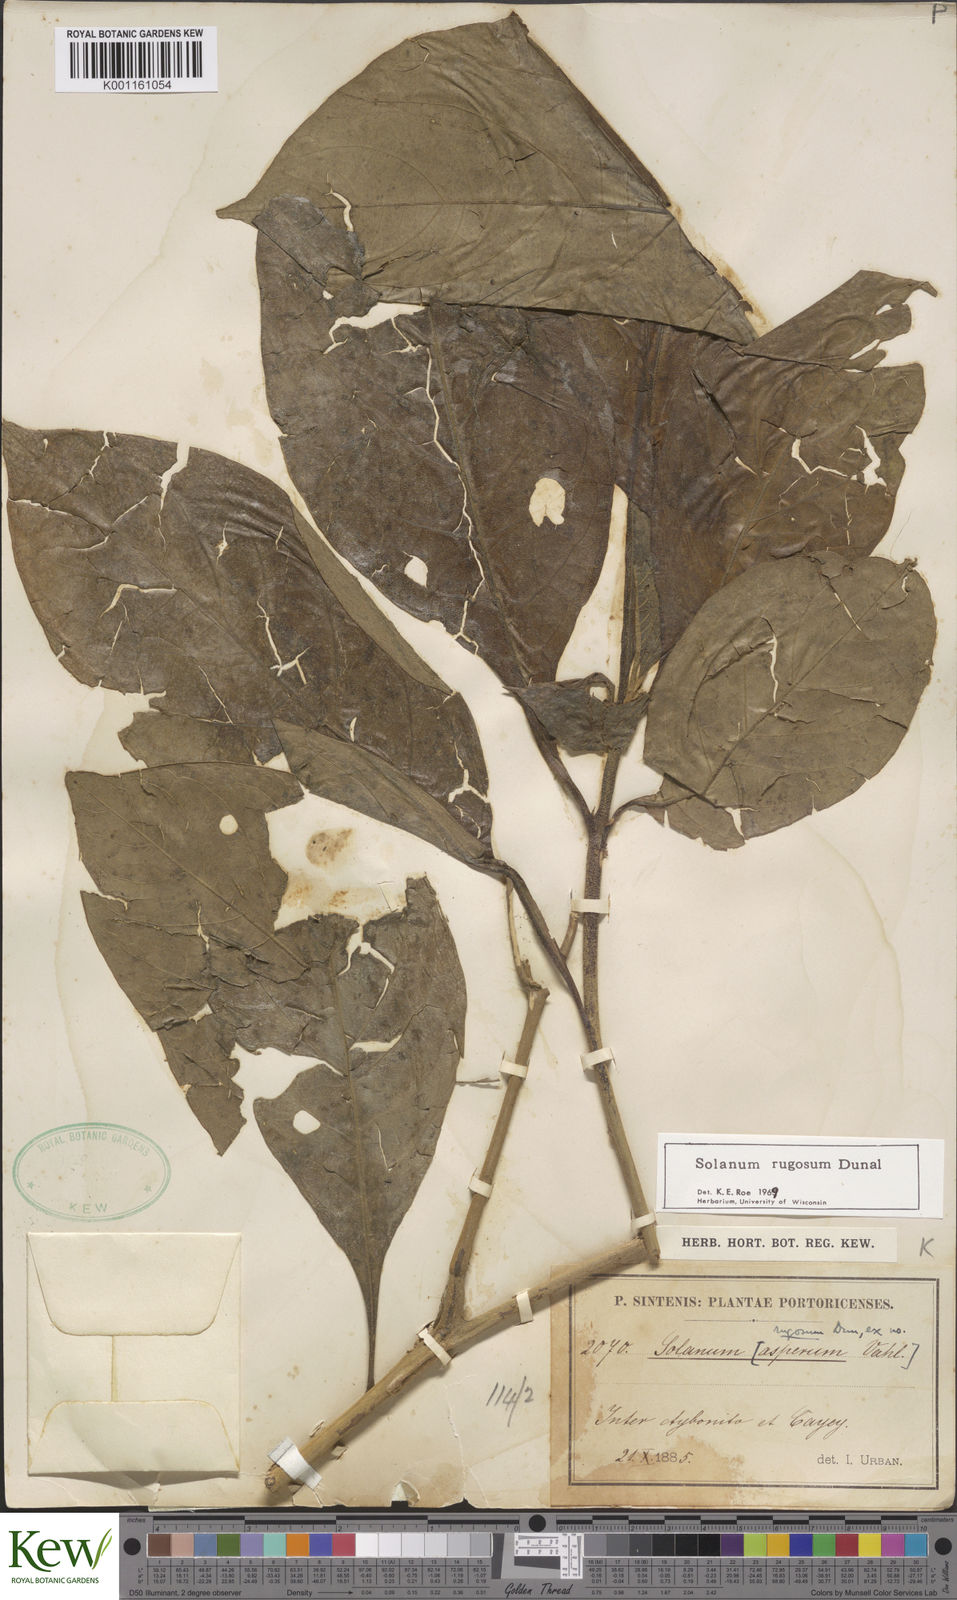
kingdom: Plantae
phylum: Tracheophyta
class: Magnoliopsida
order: Solanales
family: Solanaceae
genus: Solanum
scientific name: Solanum rugosum
